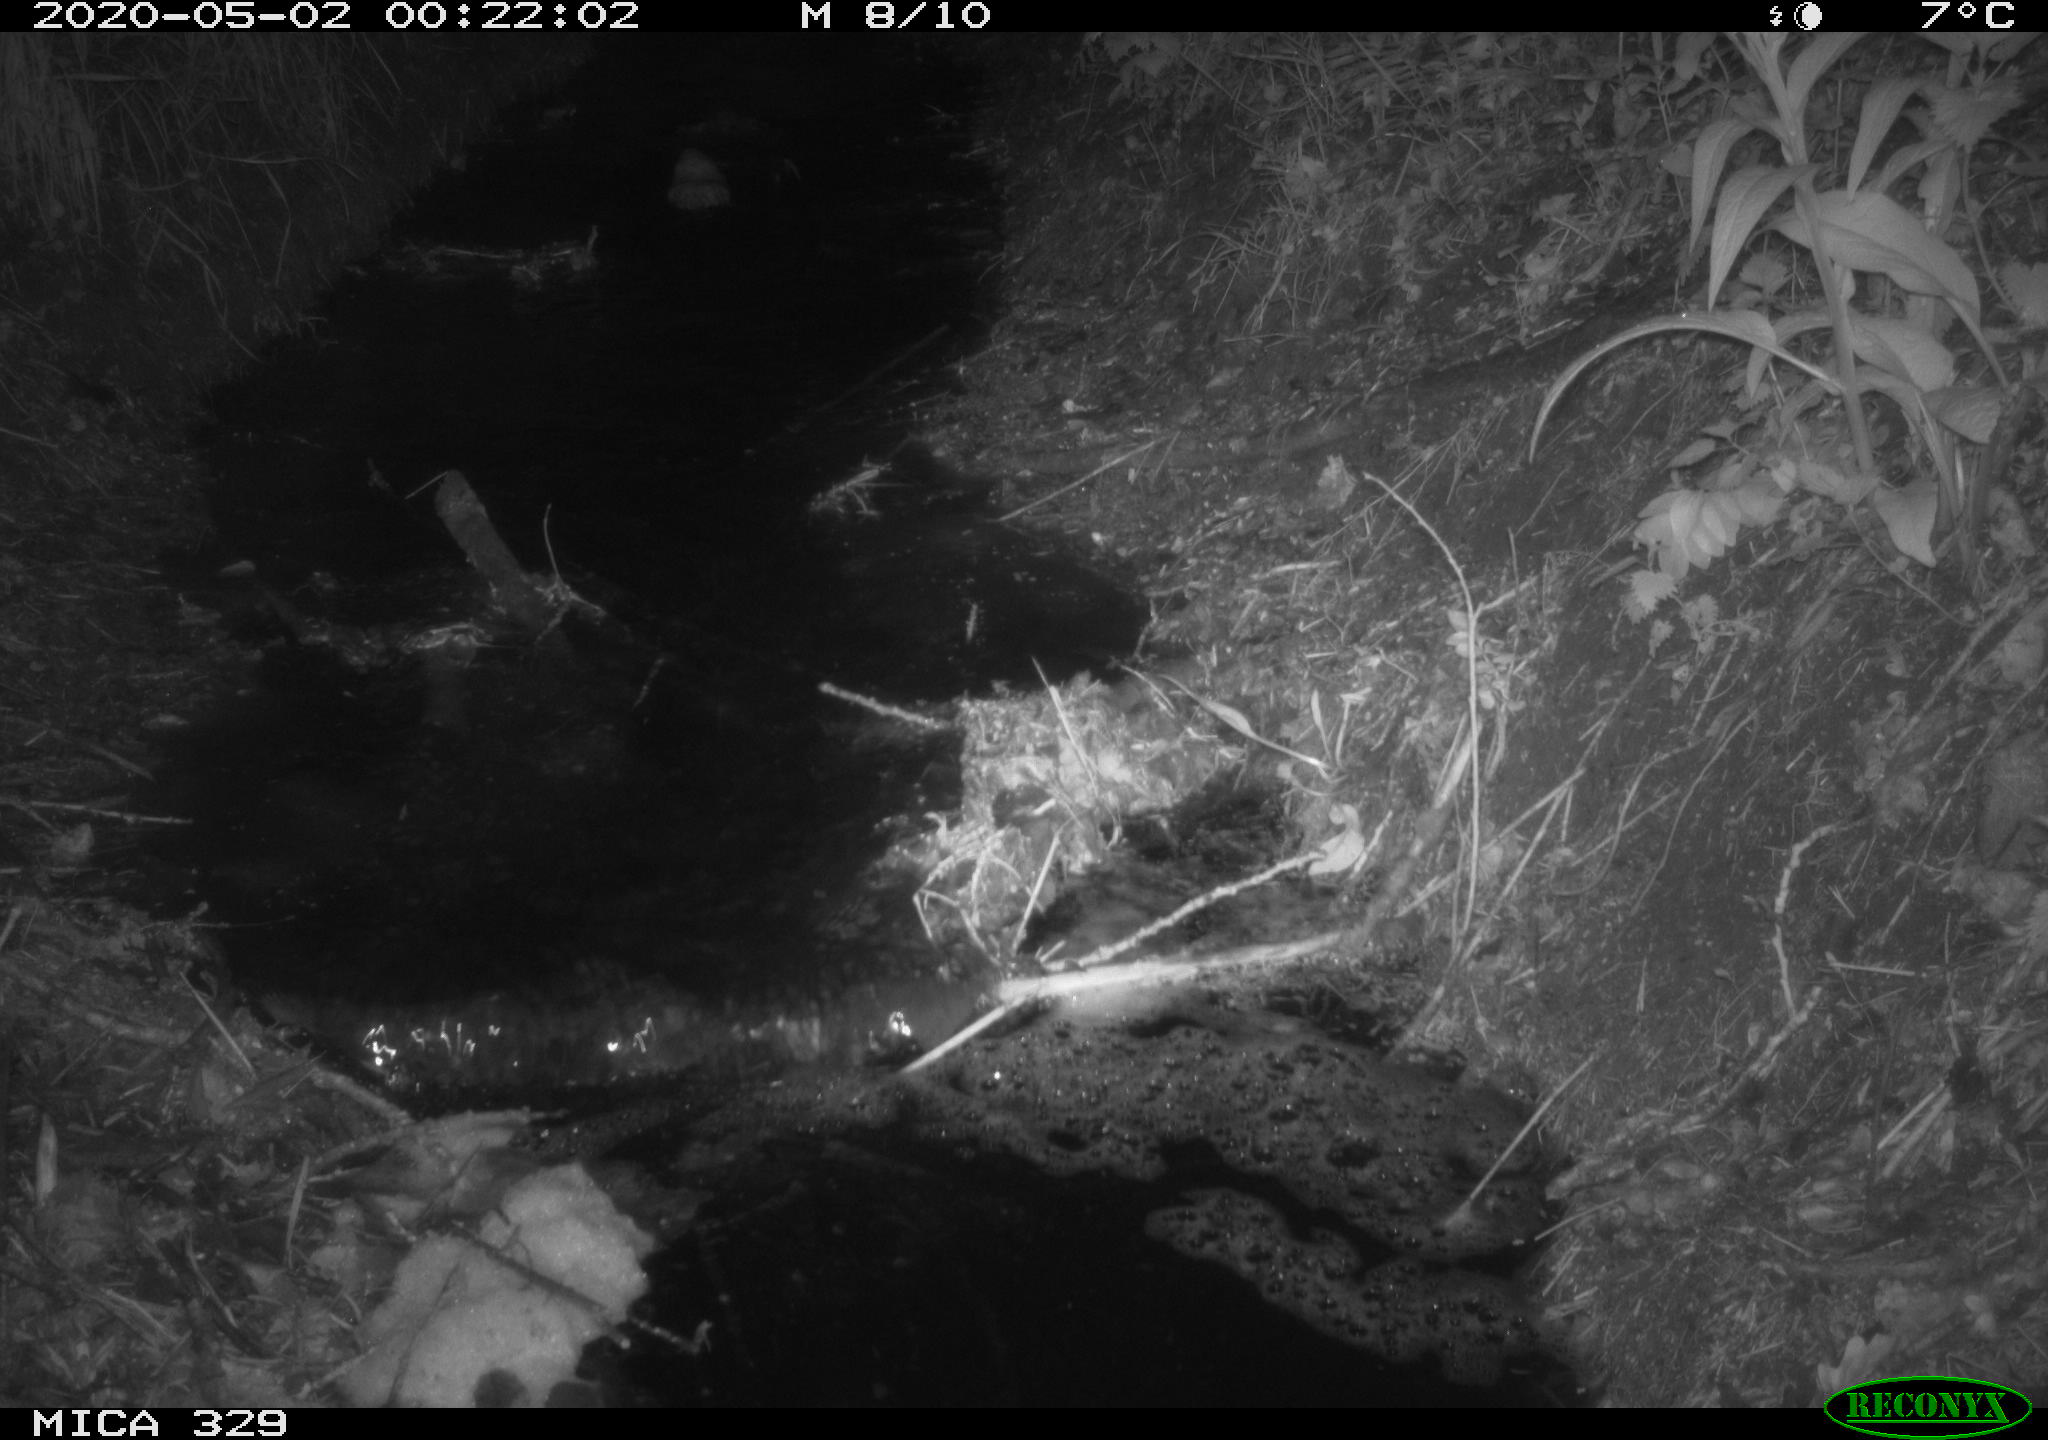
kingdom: Animalia
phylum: Chordata
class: Mammalia
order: Rodentia
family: Cricetidae
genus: Ondatra
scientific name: Ondatra zibethicus
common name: Muskrat
